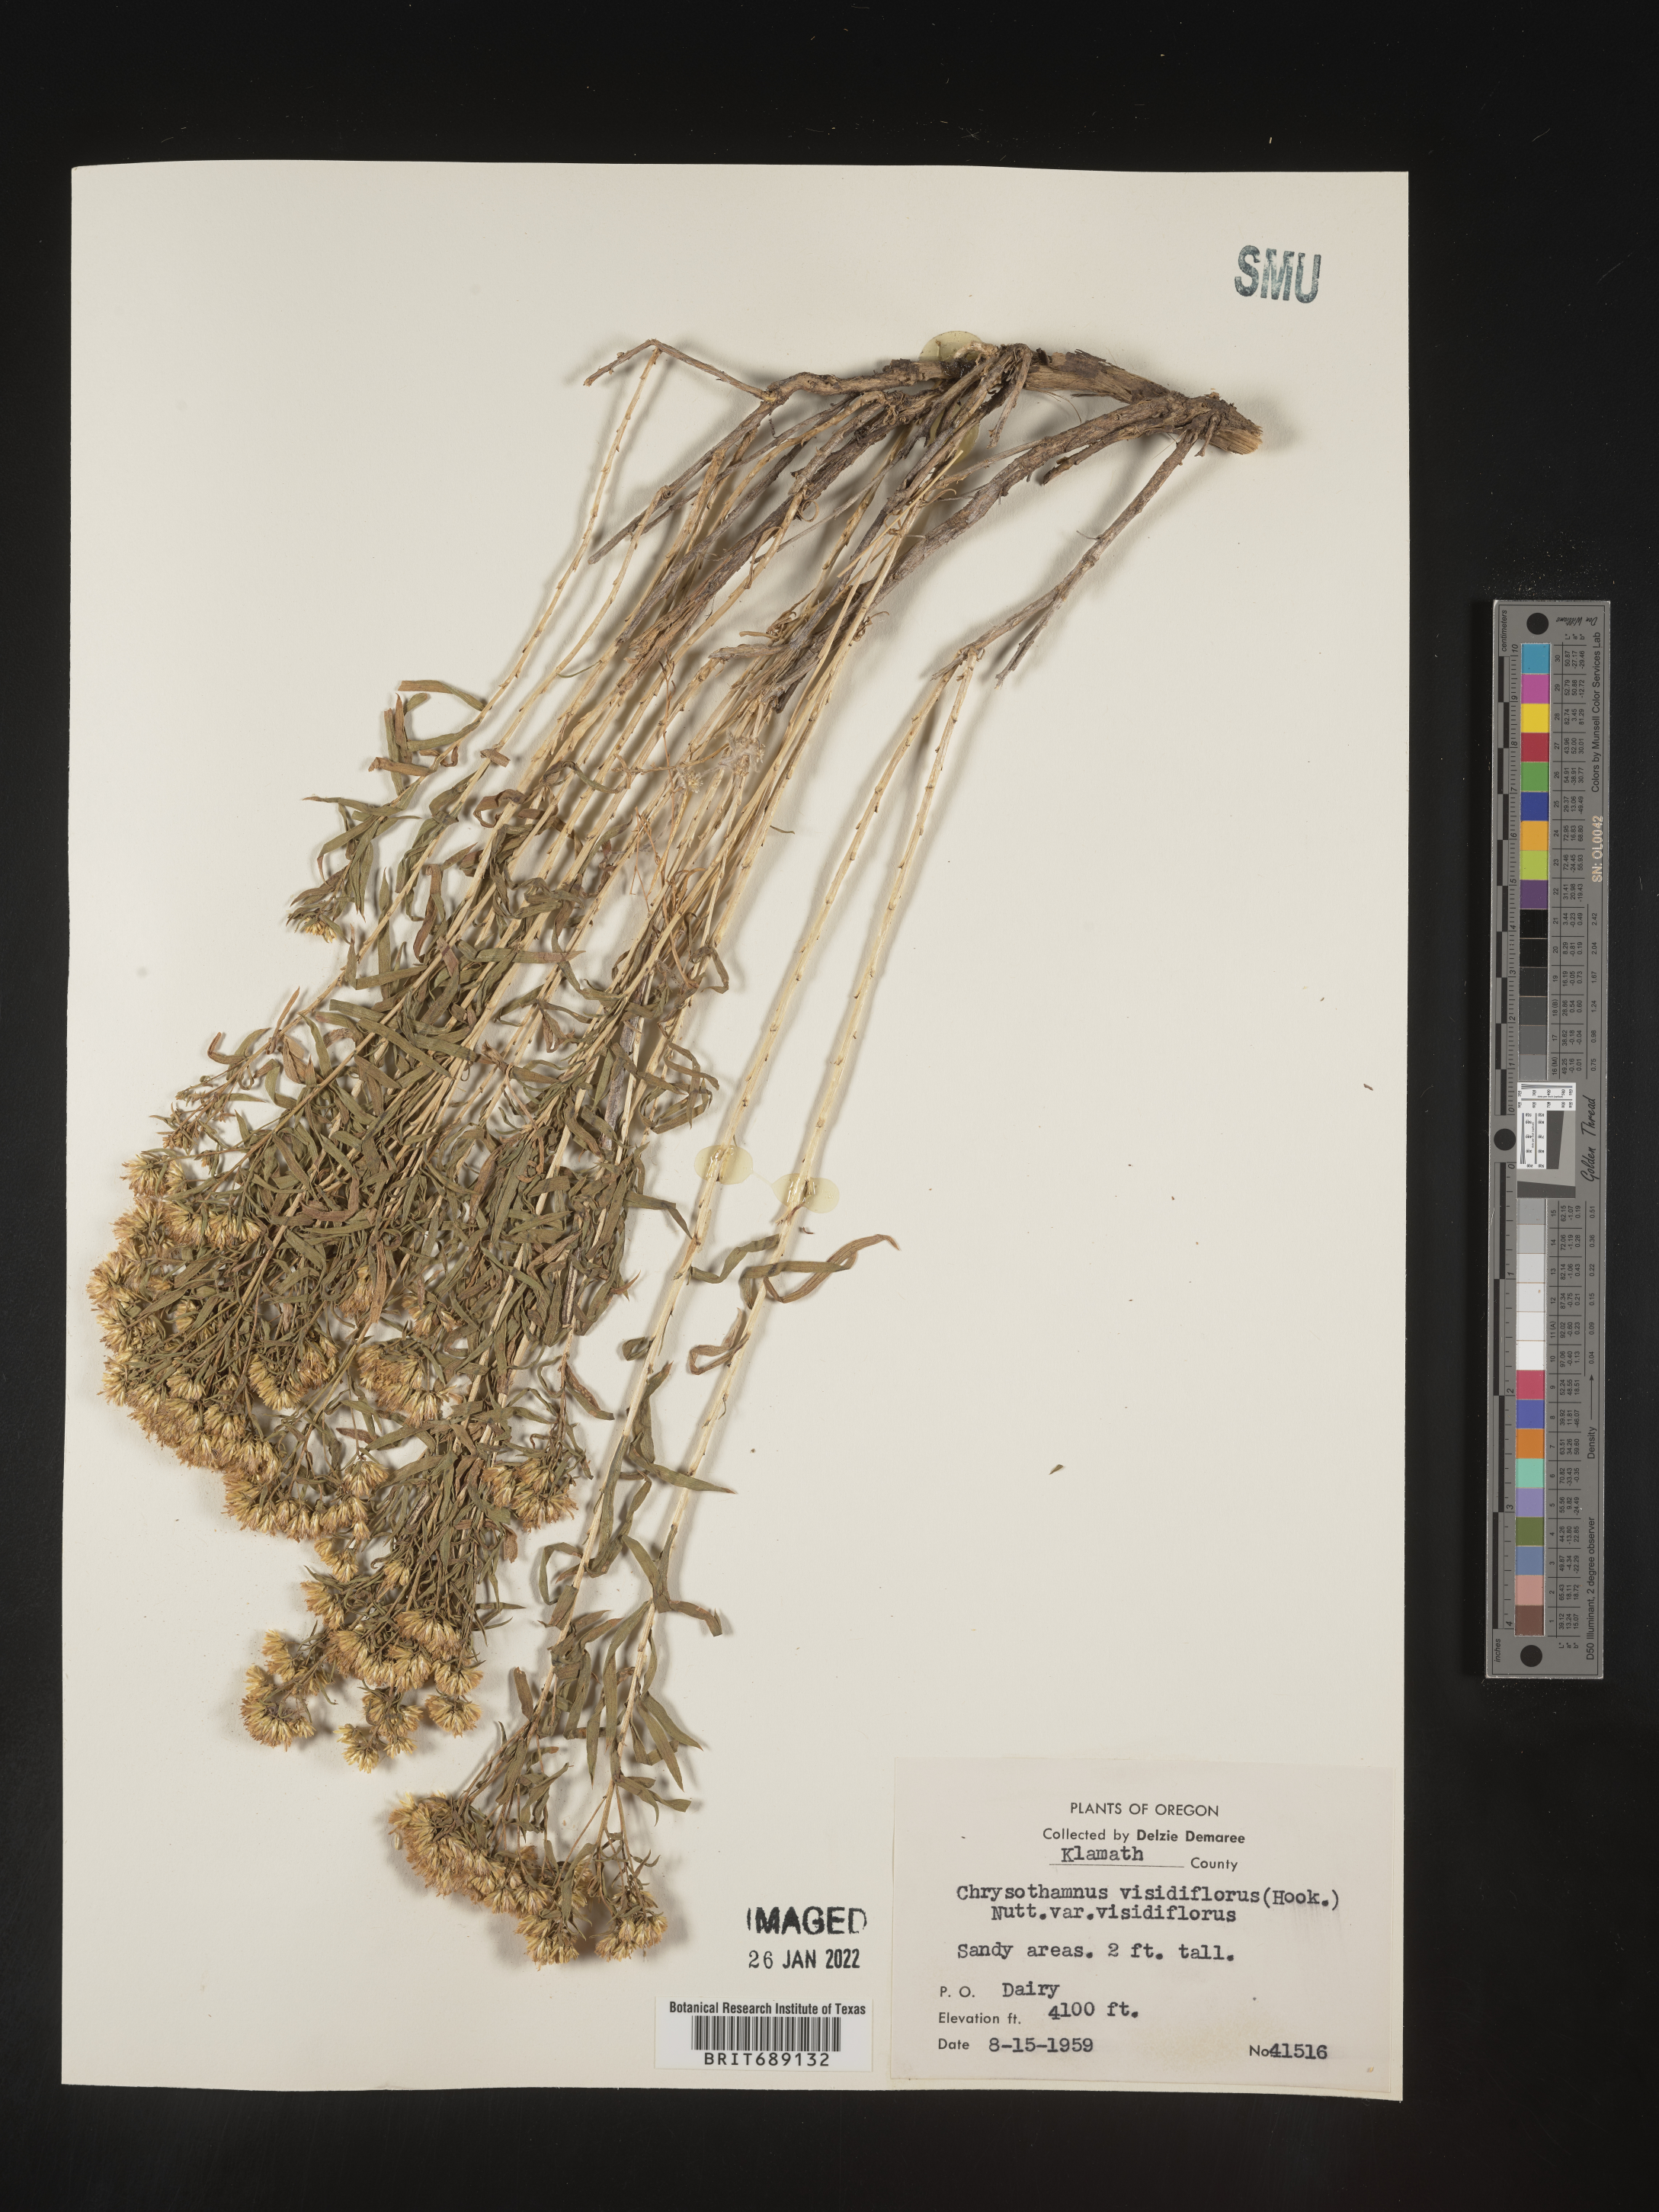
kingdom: Plantae
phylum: Tracheophyta
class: Magnoliopsida
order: Asterales
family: Asteraceae
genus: Chrysothamnus
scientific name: Chrysothamnus viscidiflorus
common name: Yellow rabbitbrush
